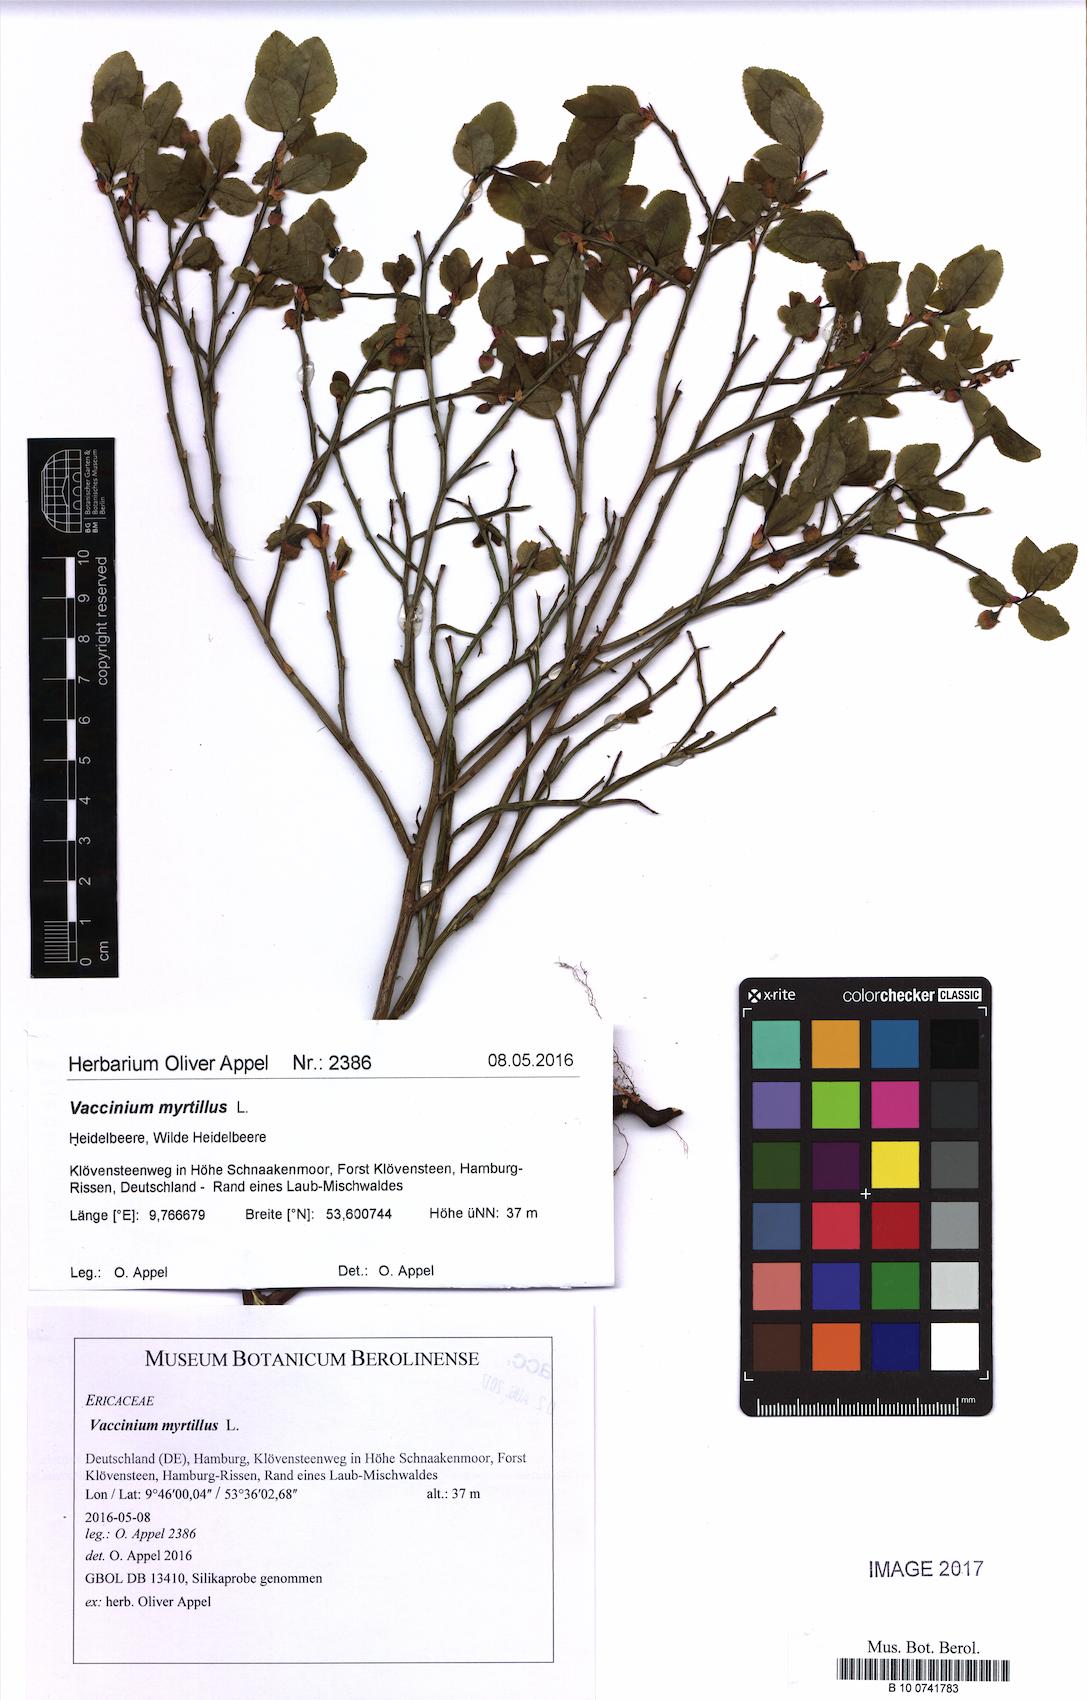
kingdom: Plantae
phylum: Tracheophyta
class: Magnoliopsida
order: Ericales
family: Ericaceae
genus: Vaccinium
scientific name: Vaccinium myrtillus
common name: Bilberry
